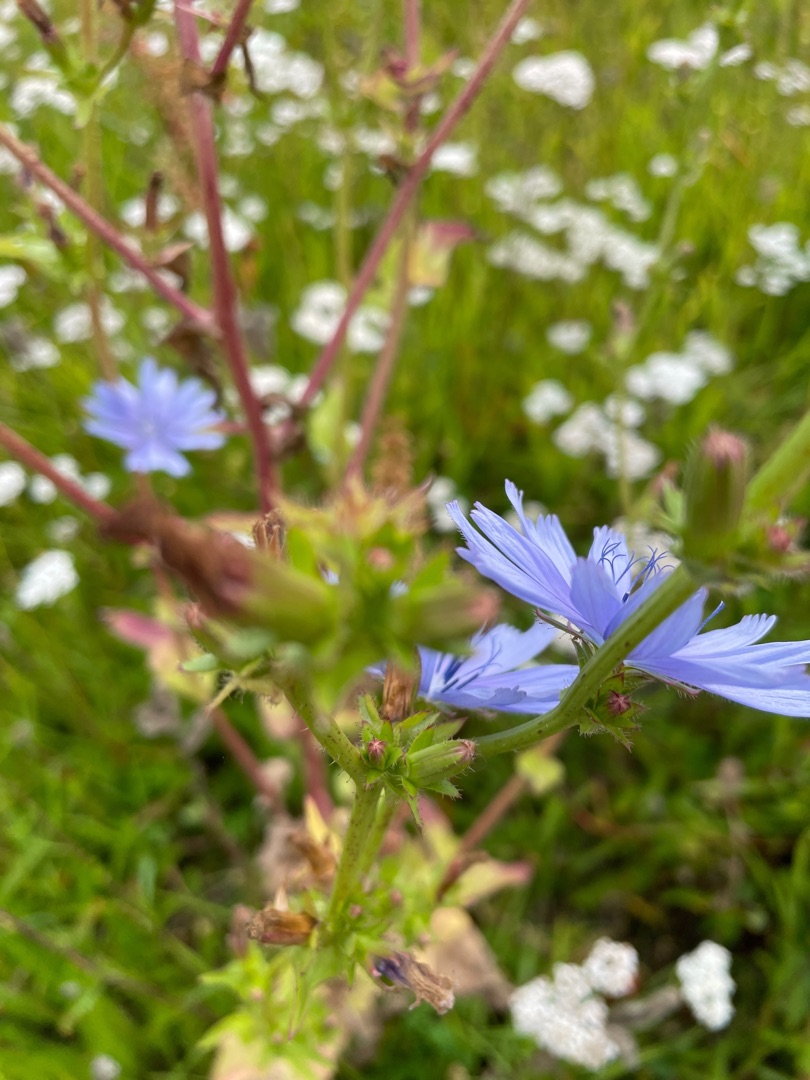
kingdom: Plantae
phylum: Tracheophyta
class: Magnoliopsida
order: Asterales
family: Asteraceae
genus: Cichorium
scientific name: Cichorium intybus
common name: Cikorie
